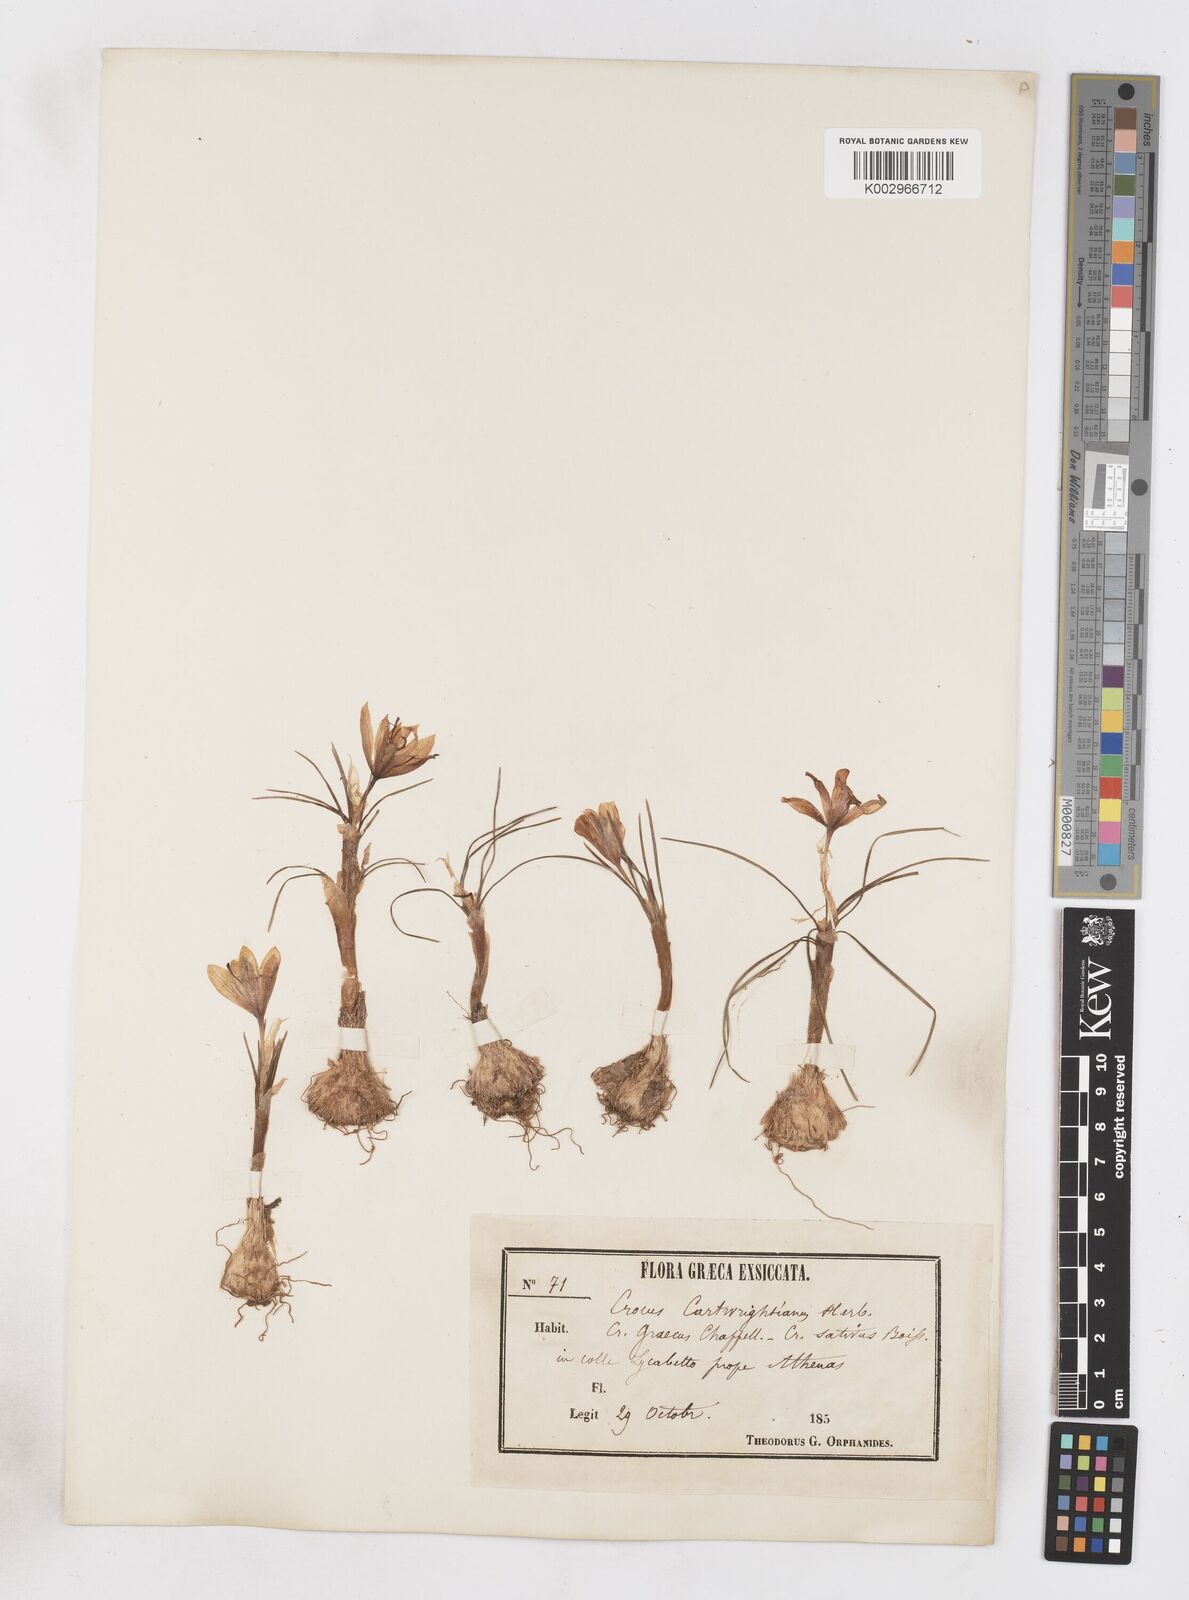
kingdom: Plantae
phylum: Tracheophyta
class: Liliopsida
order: Asparagales
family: Iridaceae
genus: Crocus
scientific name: Crocus cartwrightianus
